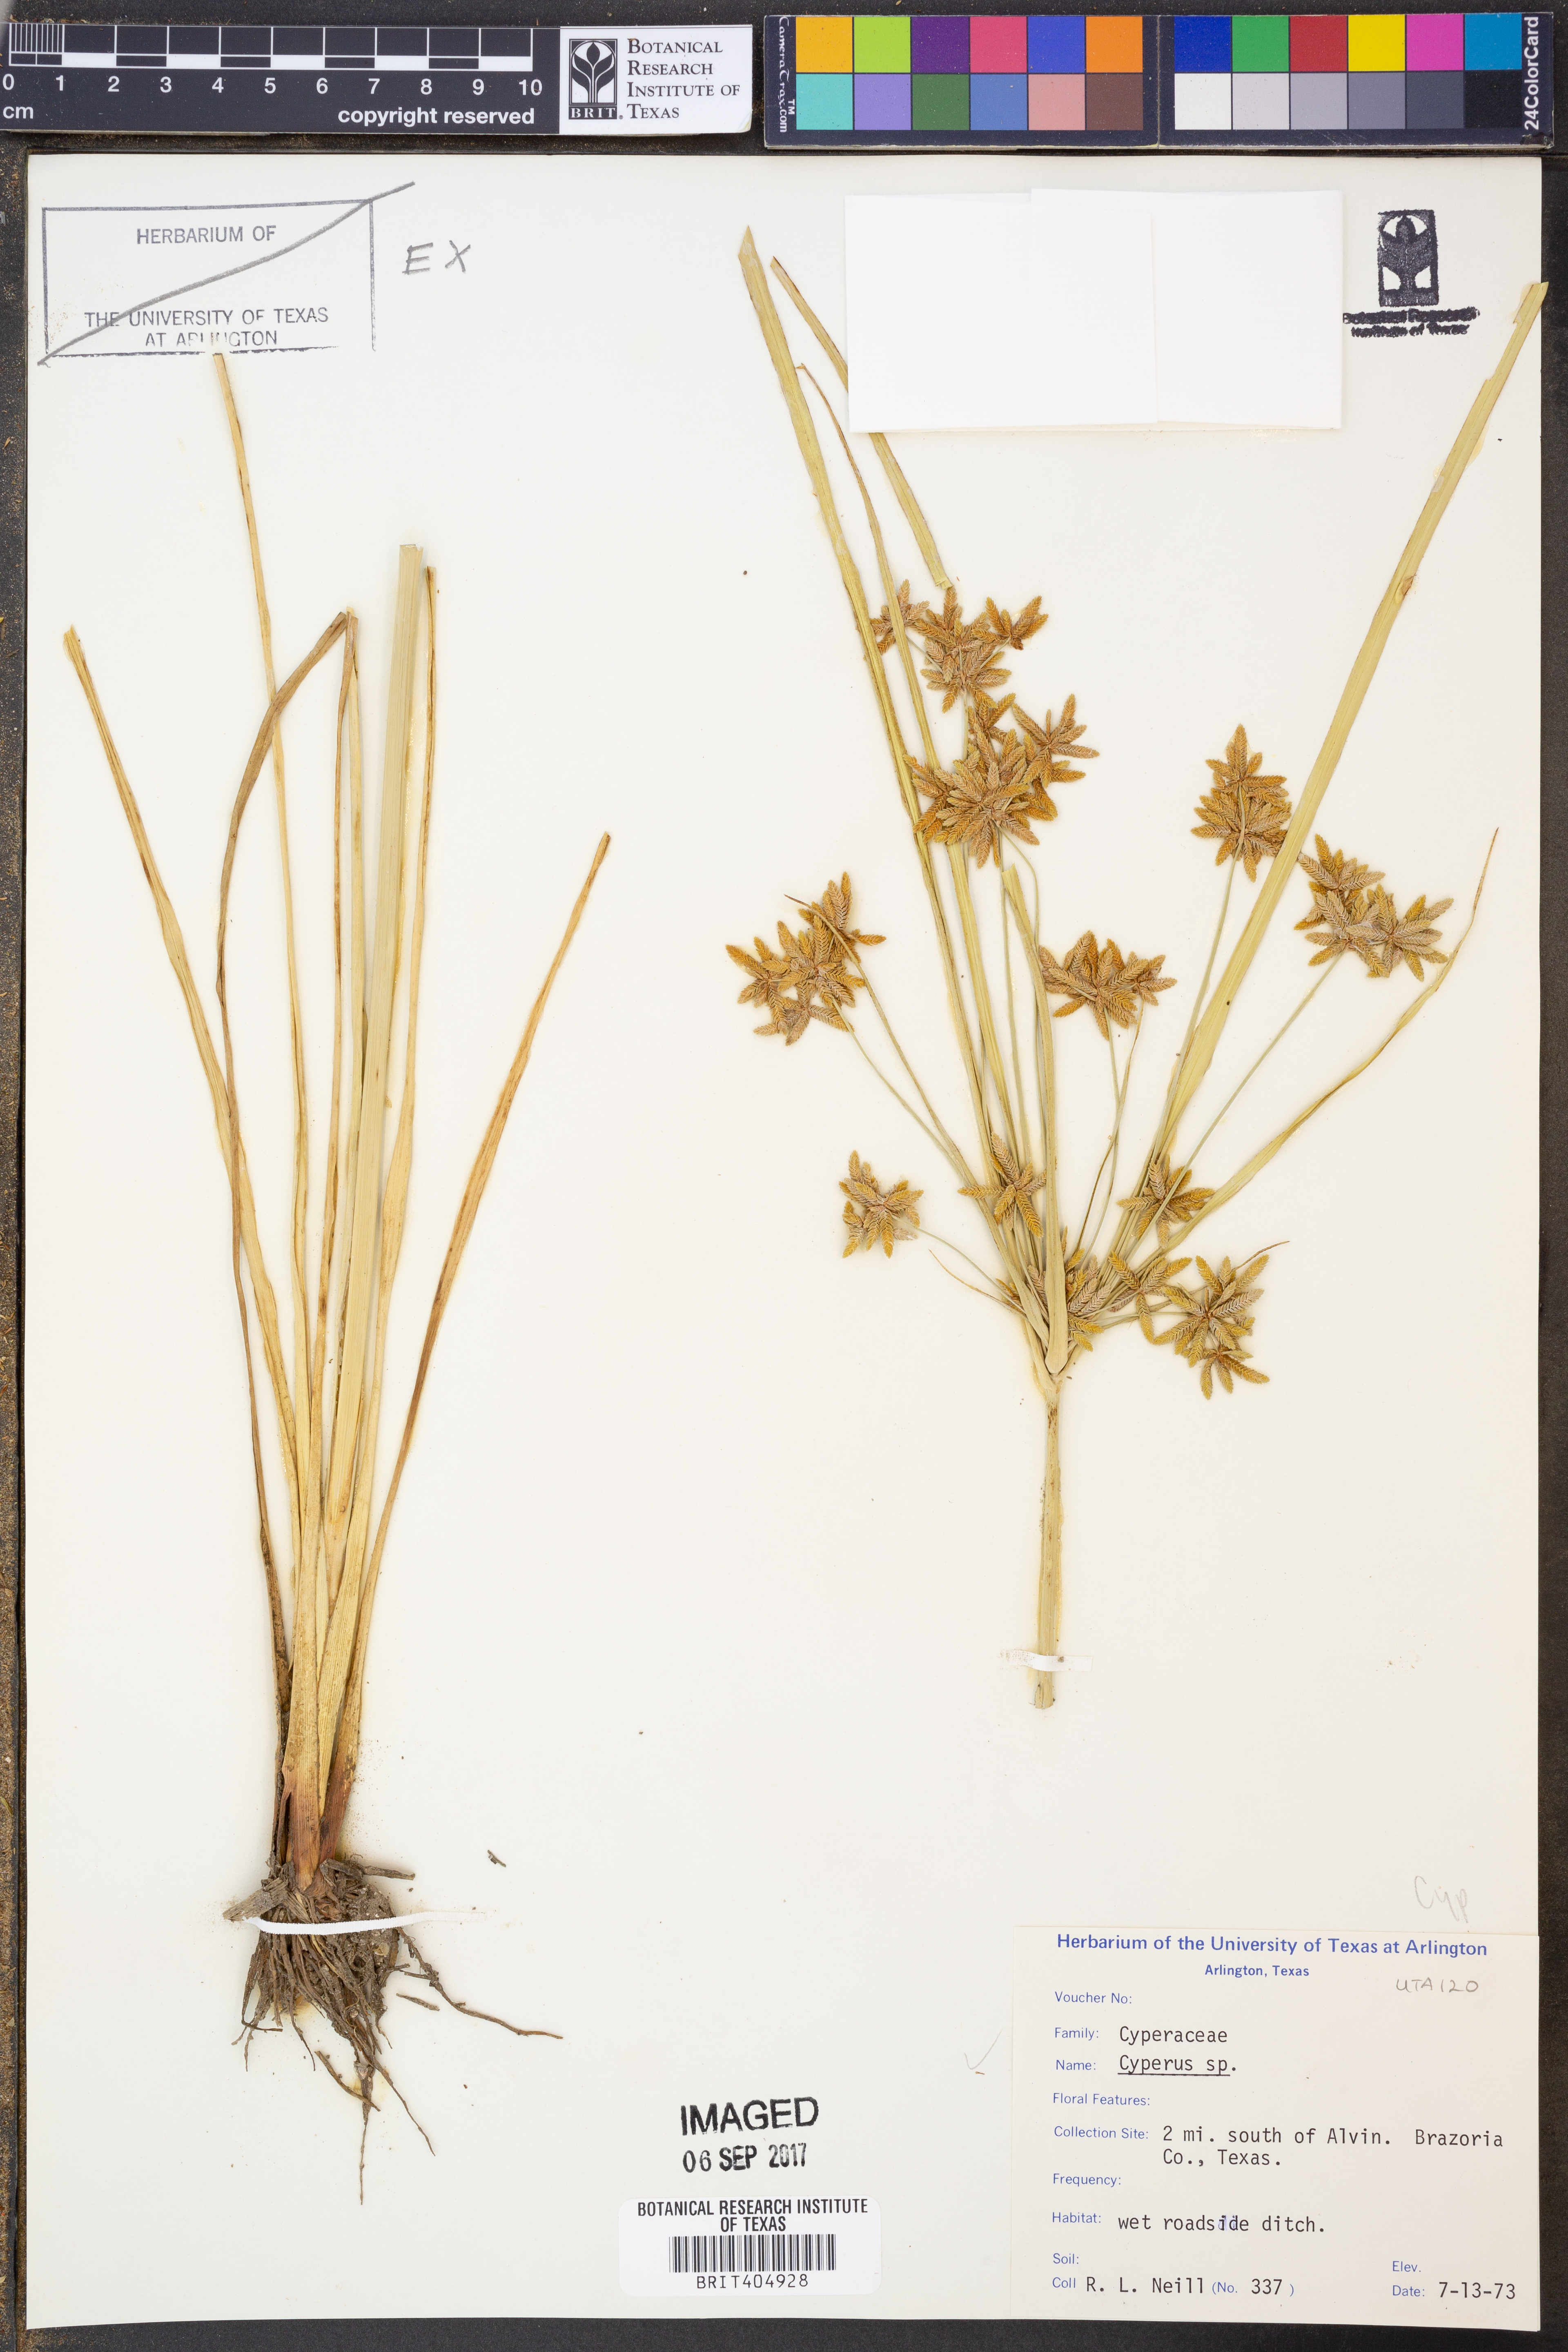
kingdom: Plantae
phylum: Tracheophyta
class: Liliopsida
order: Poales
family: Cyperaceae
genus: Cyperus
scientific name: Cyperus odoratus
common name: Fragrant flatsedge
